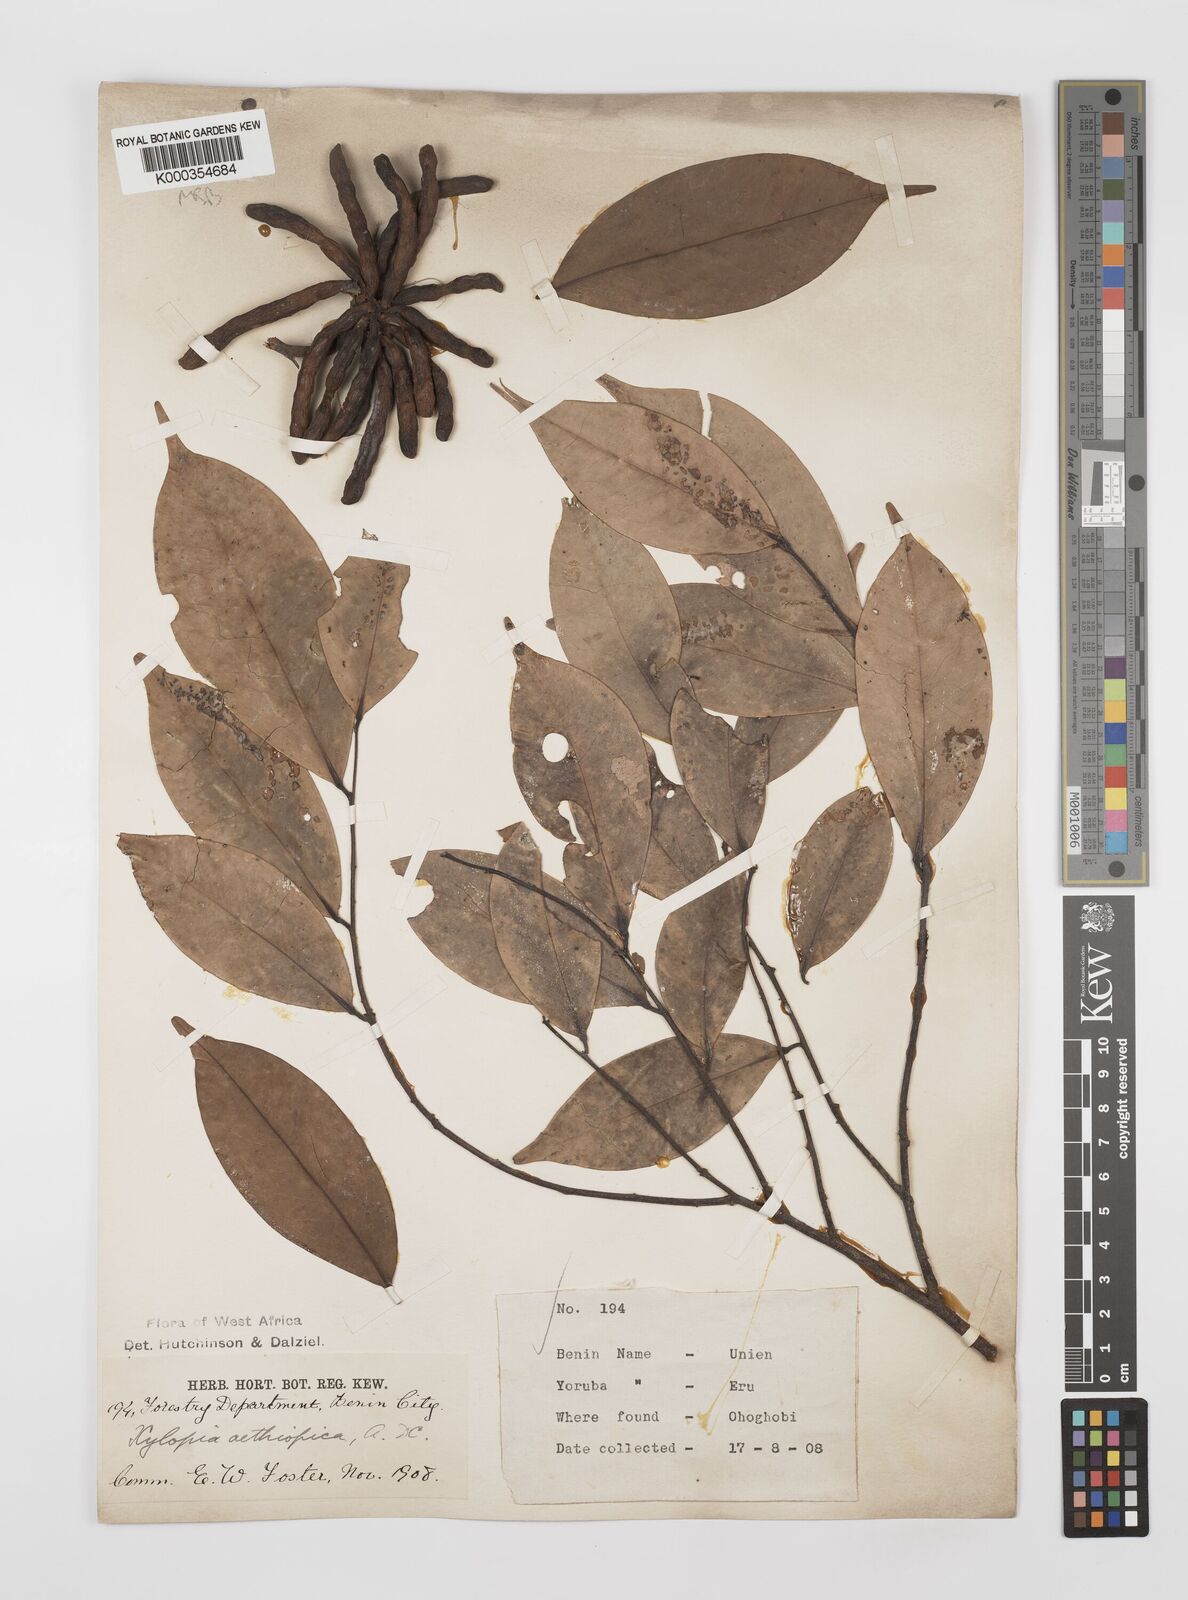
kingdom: Plantae
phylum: Tracheophyta
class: Magnoliopsida
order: Magnoliales
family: Annonaceae
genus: Xylopia
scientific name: Xylopia aethiopica
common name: Ethiopian-pepper
